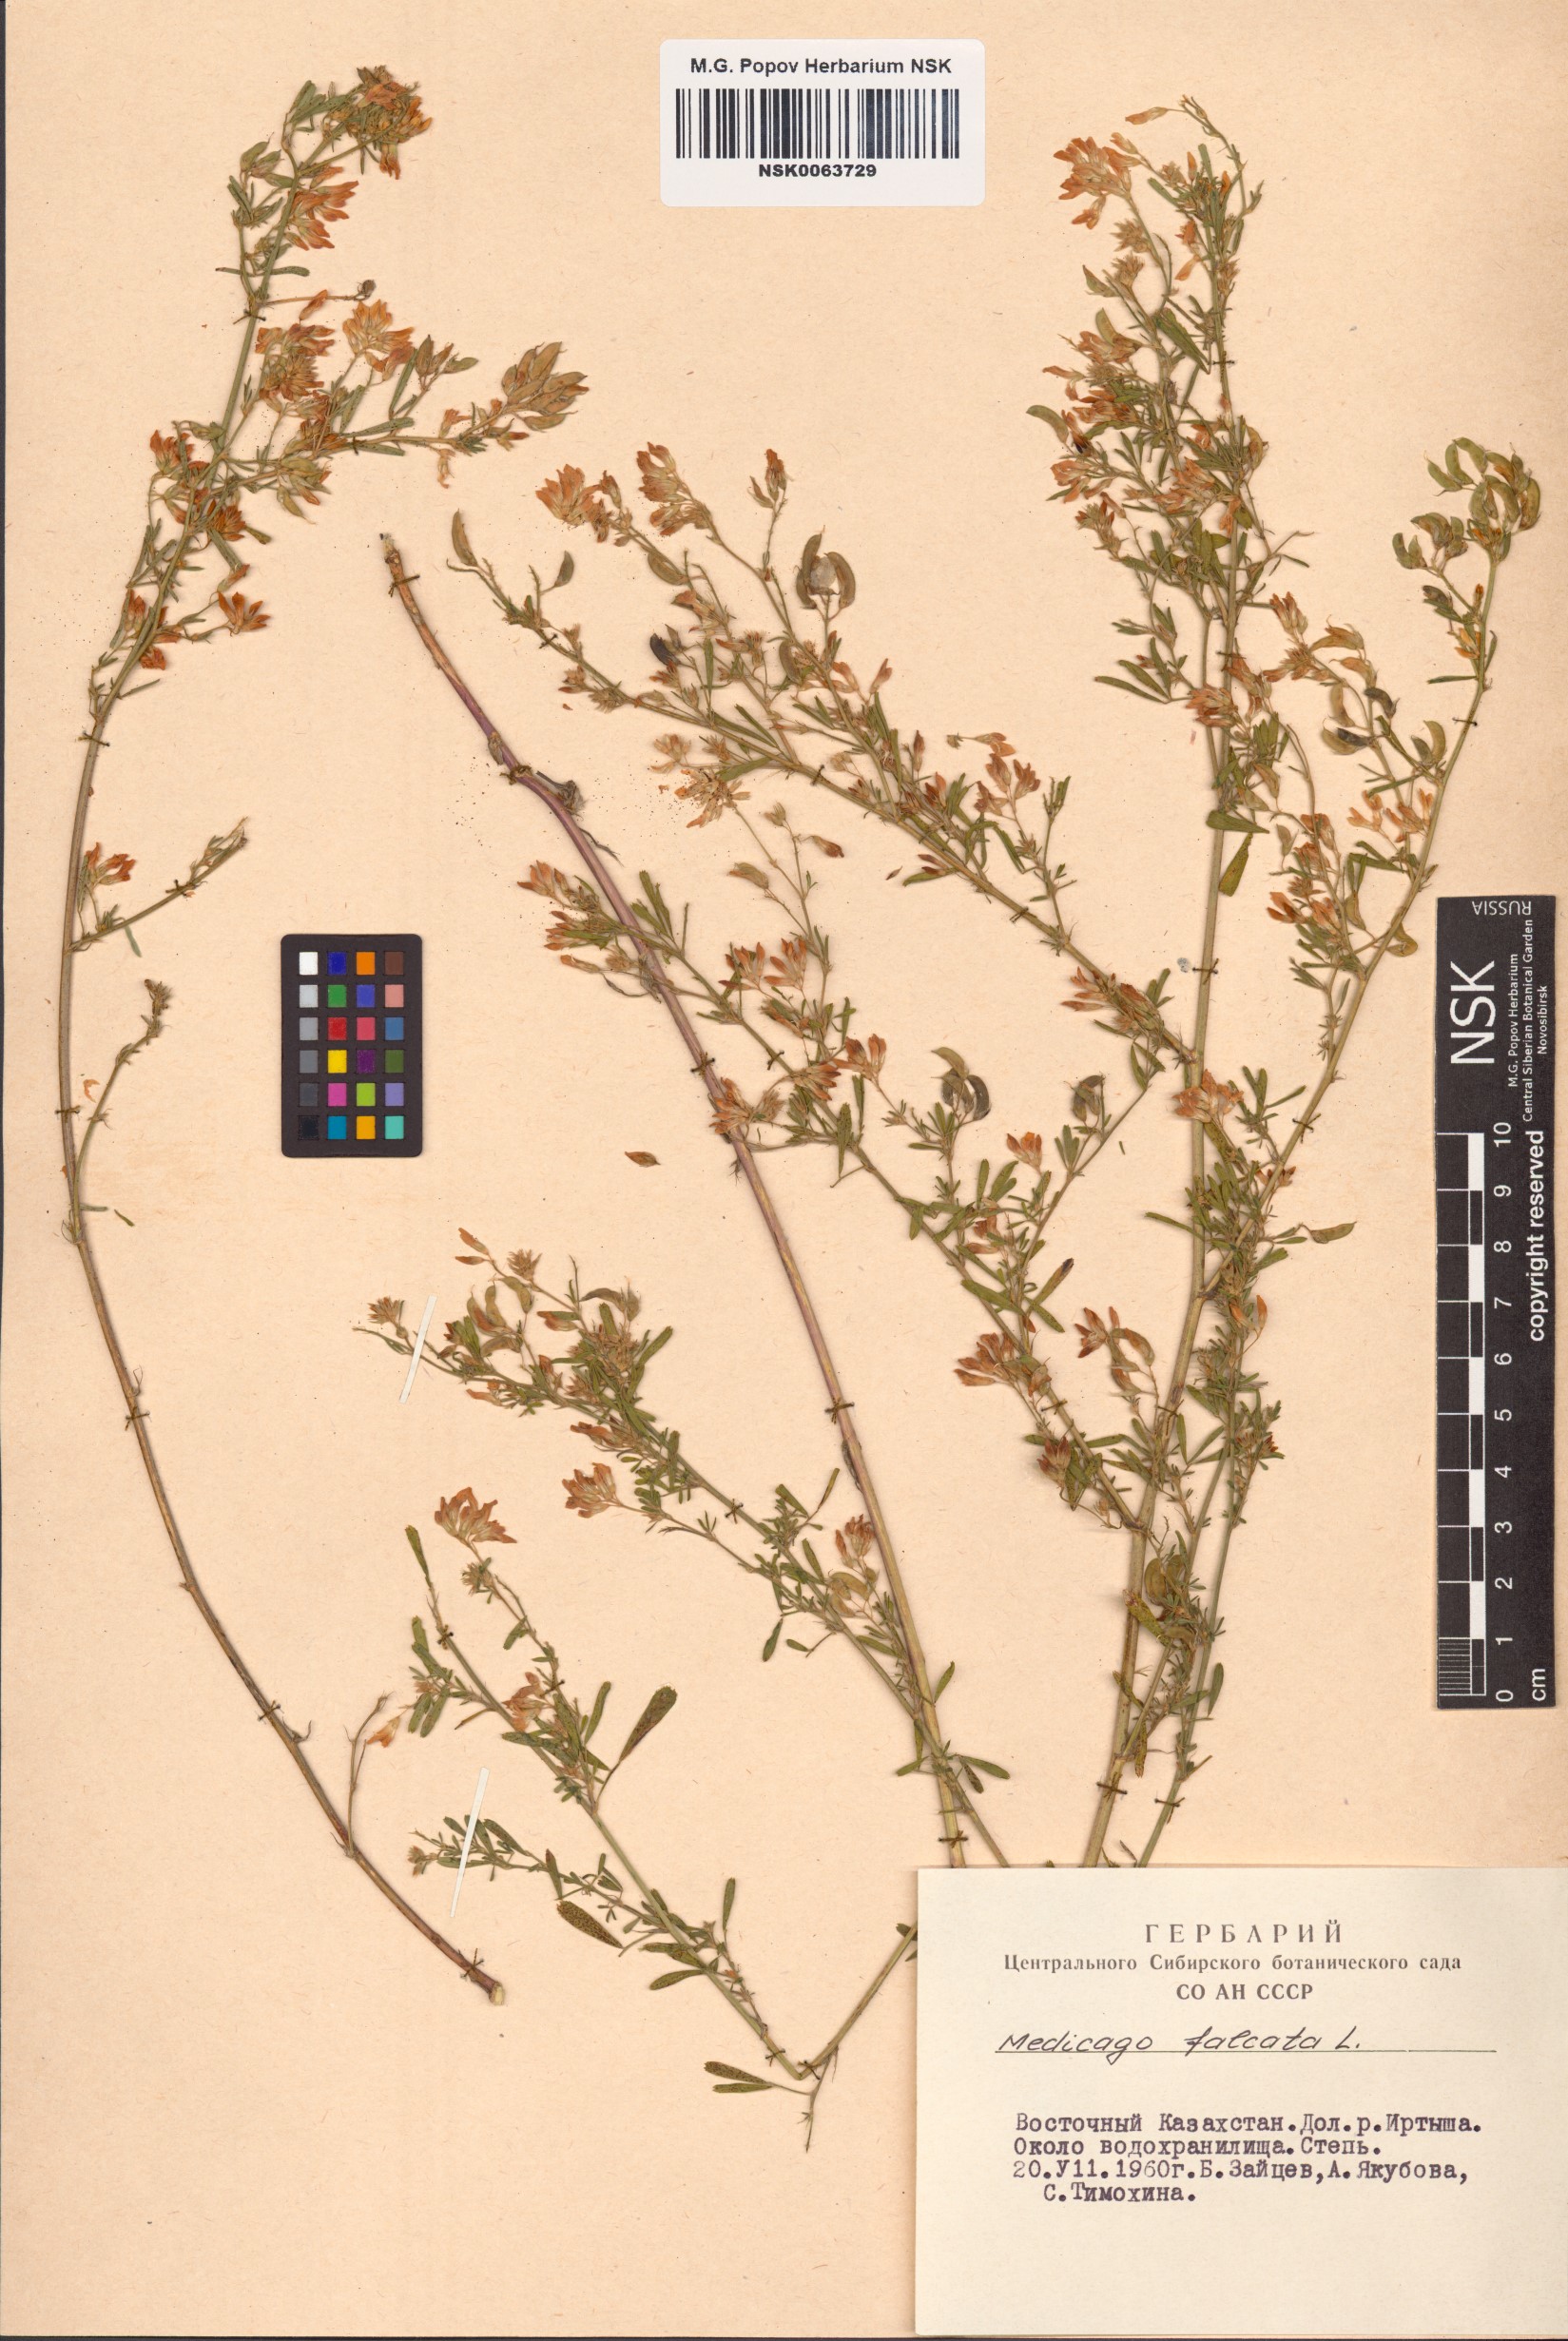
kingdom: Plantae
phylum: Tracheophyta
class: Magnoliopsida
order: Fabales
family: Fabaceae
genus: Medicago
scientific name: Medicago falcata
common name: Sickle medick
